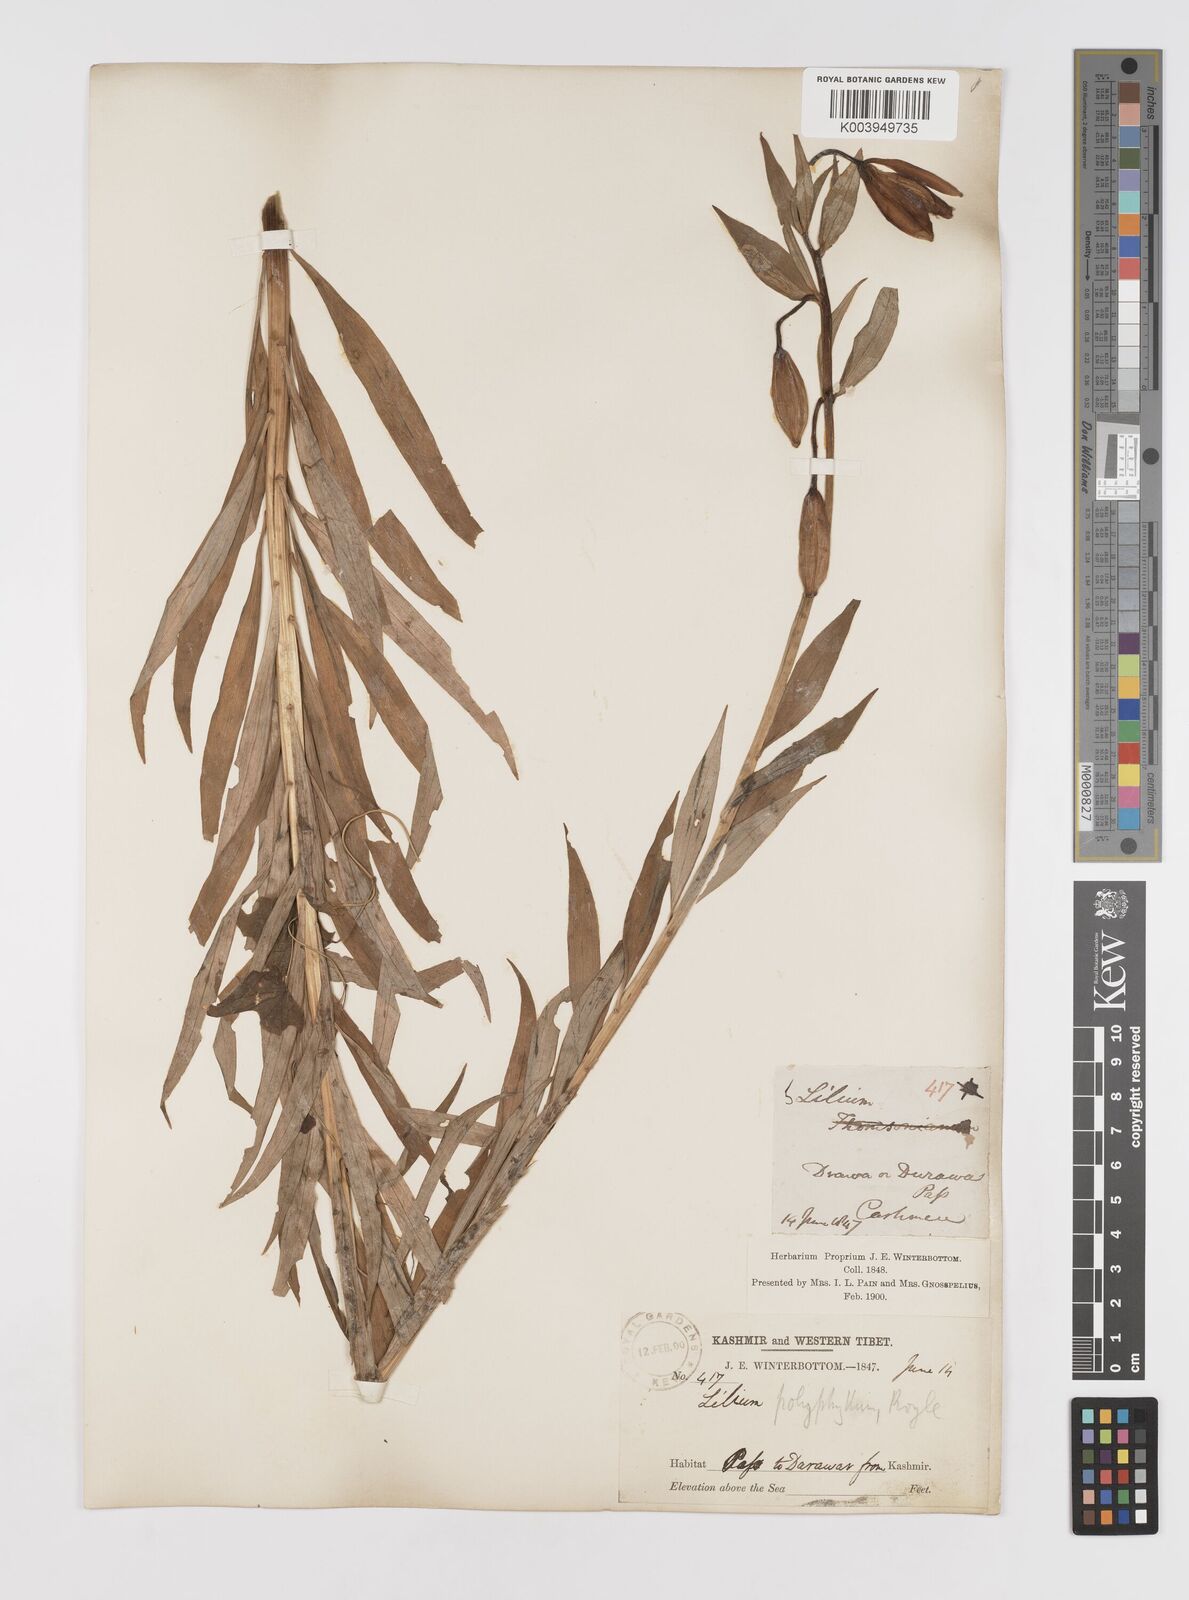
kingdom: Plantae
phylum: Tracheophyta
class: Liliopsida
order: Liliales
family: Liliaceae
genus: Lilium
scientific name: Lilium polyphyllum
